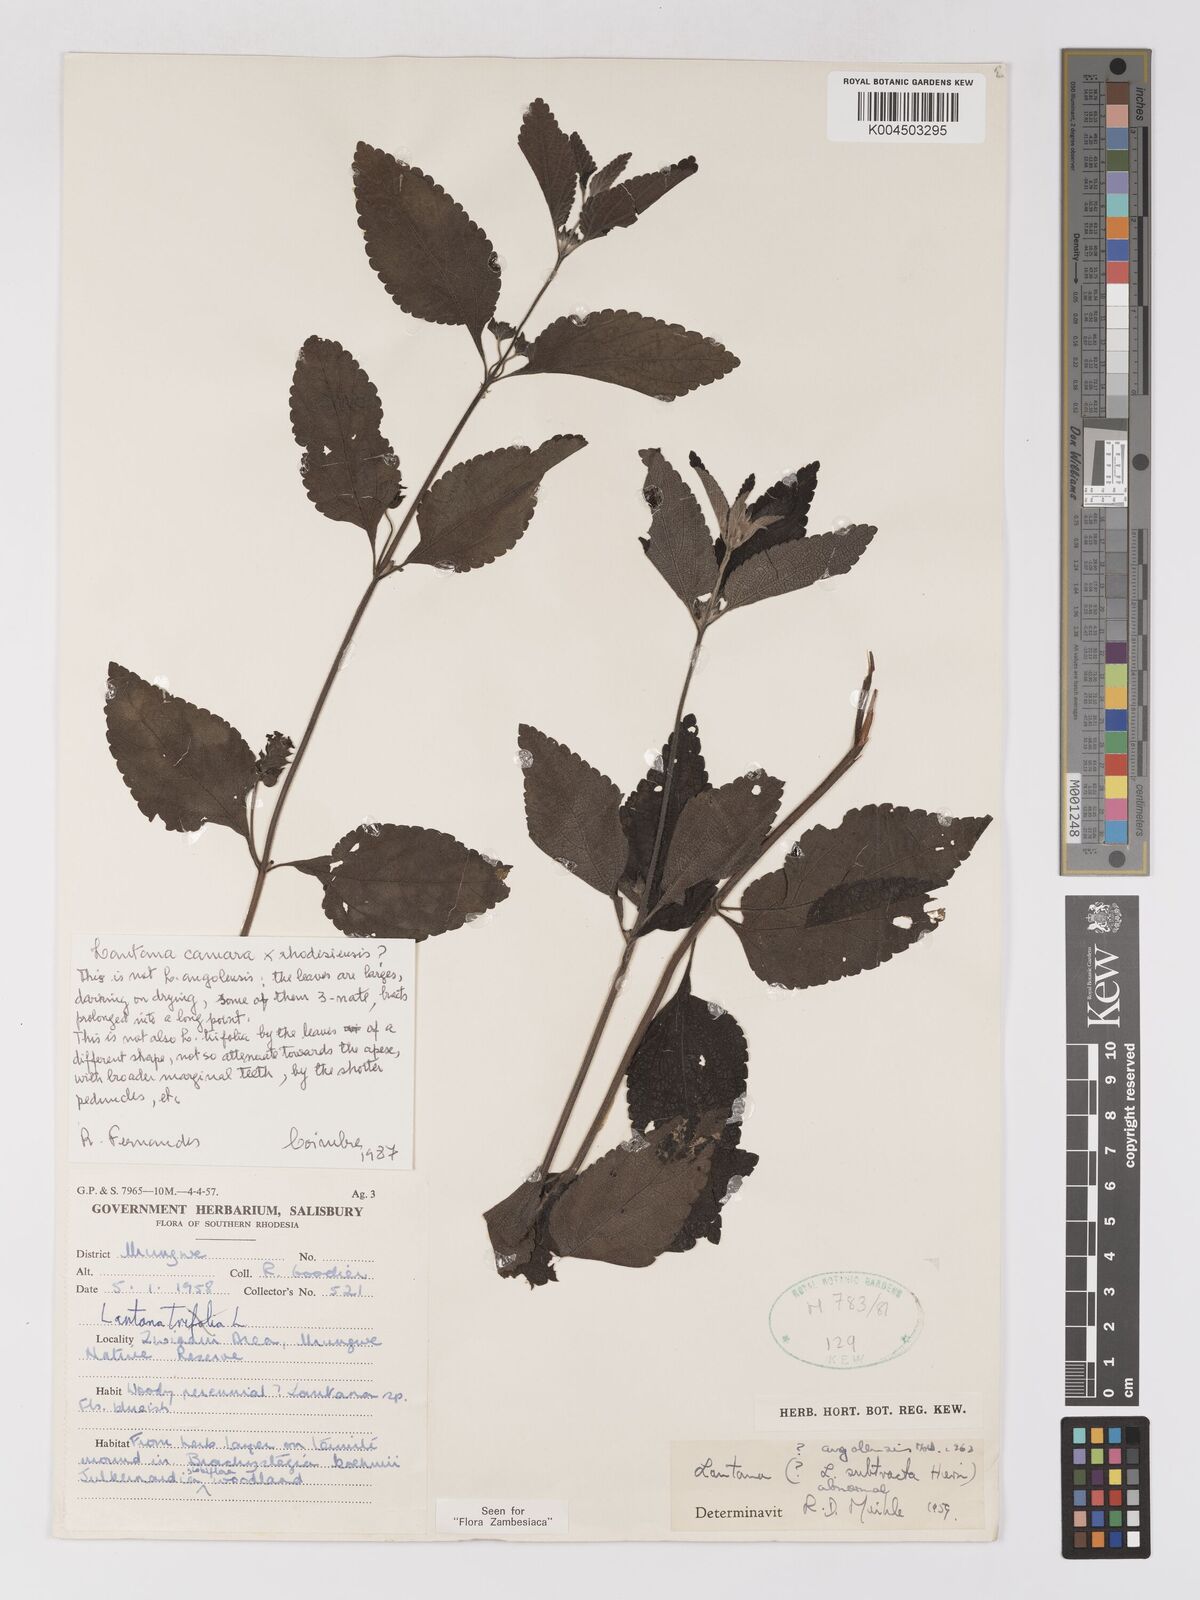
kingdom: Plantae
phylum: Tracheophyta
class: Magnoliopsida
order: Lamiales
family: Verbenaceae
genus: Lantana
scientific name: Lantana camara
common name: Lantana
